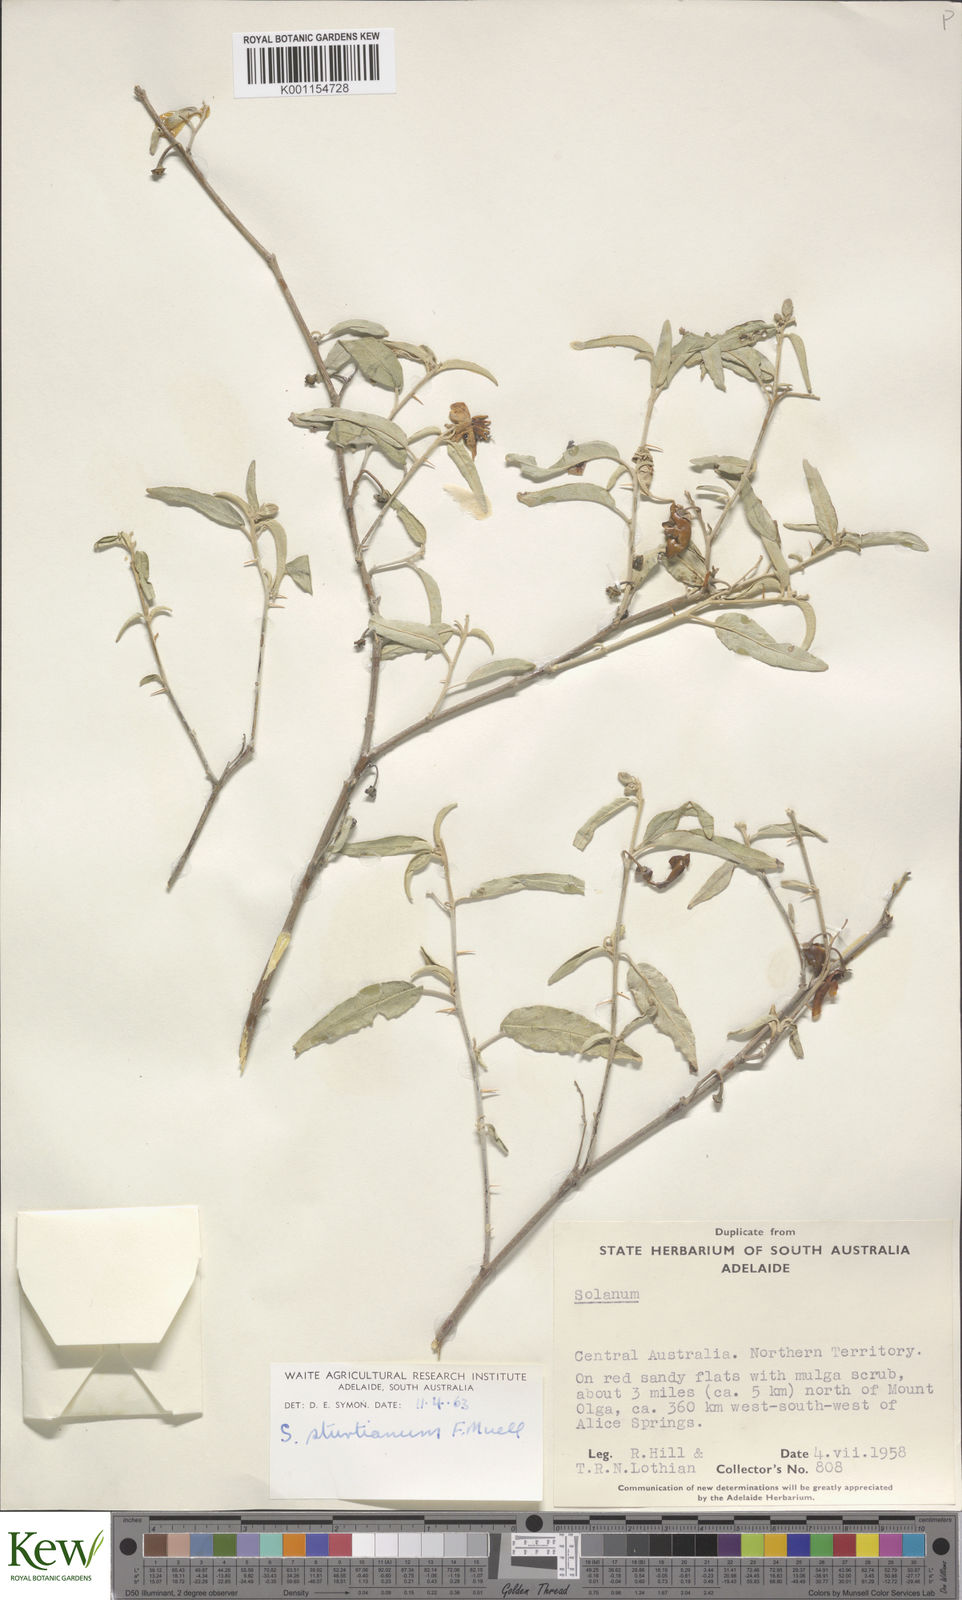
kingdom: Plantae
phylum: Tracheophyta
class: Magnoliopsida
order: Solanales
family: Solanaceae
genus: Solanum
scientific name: Solanum sturtianum
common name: Thargomindah nightshade
